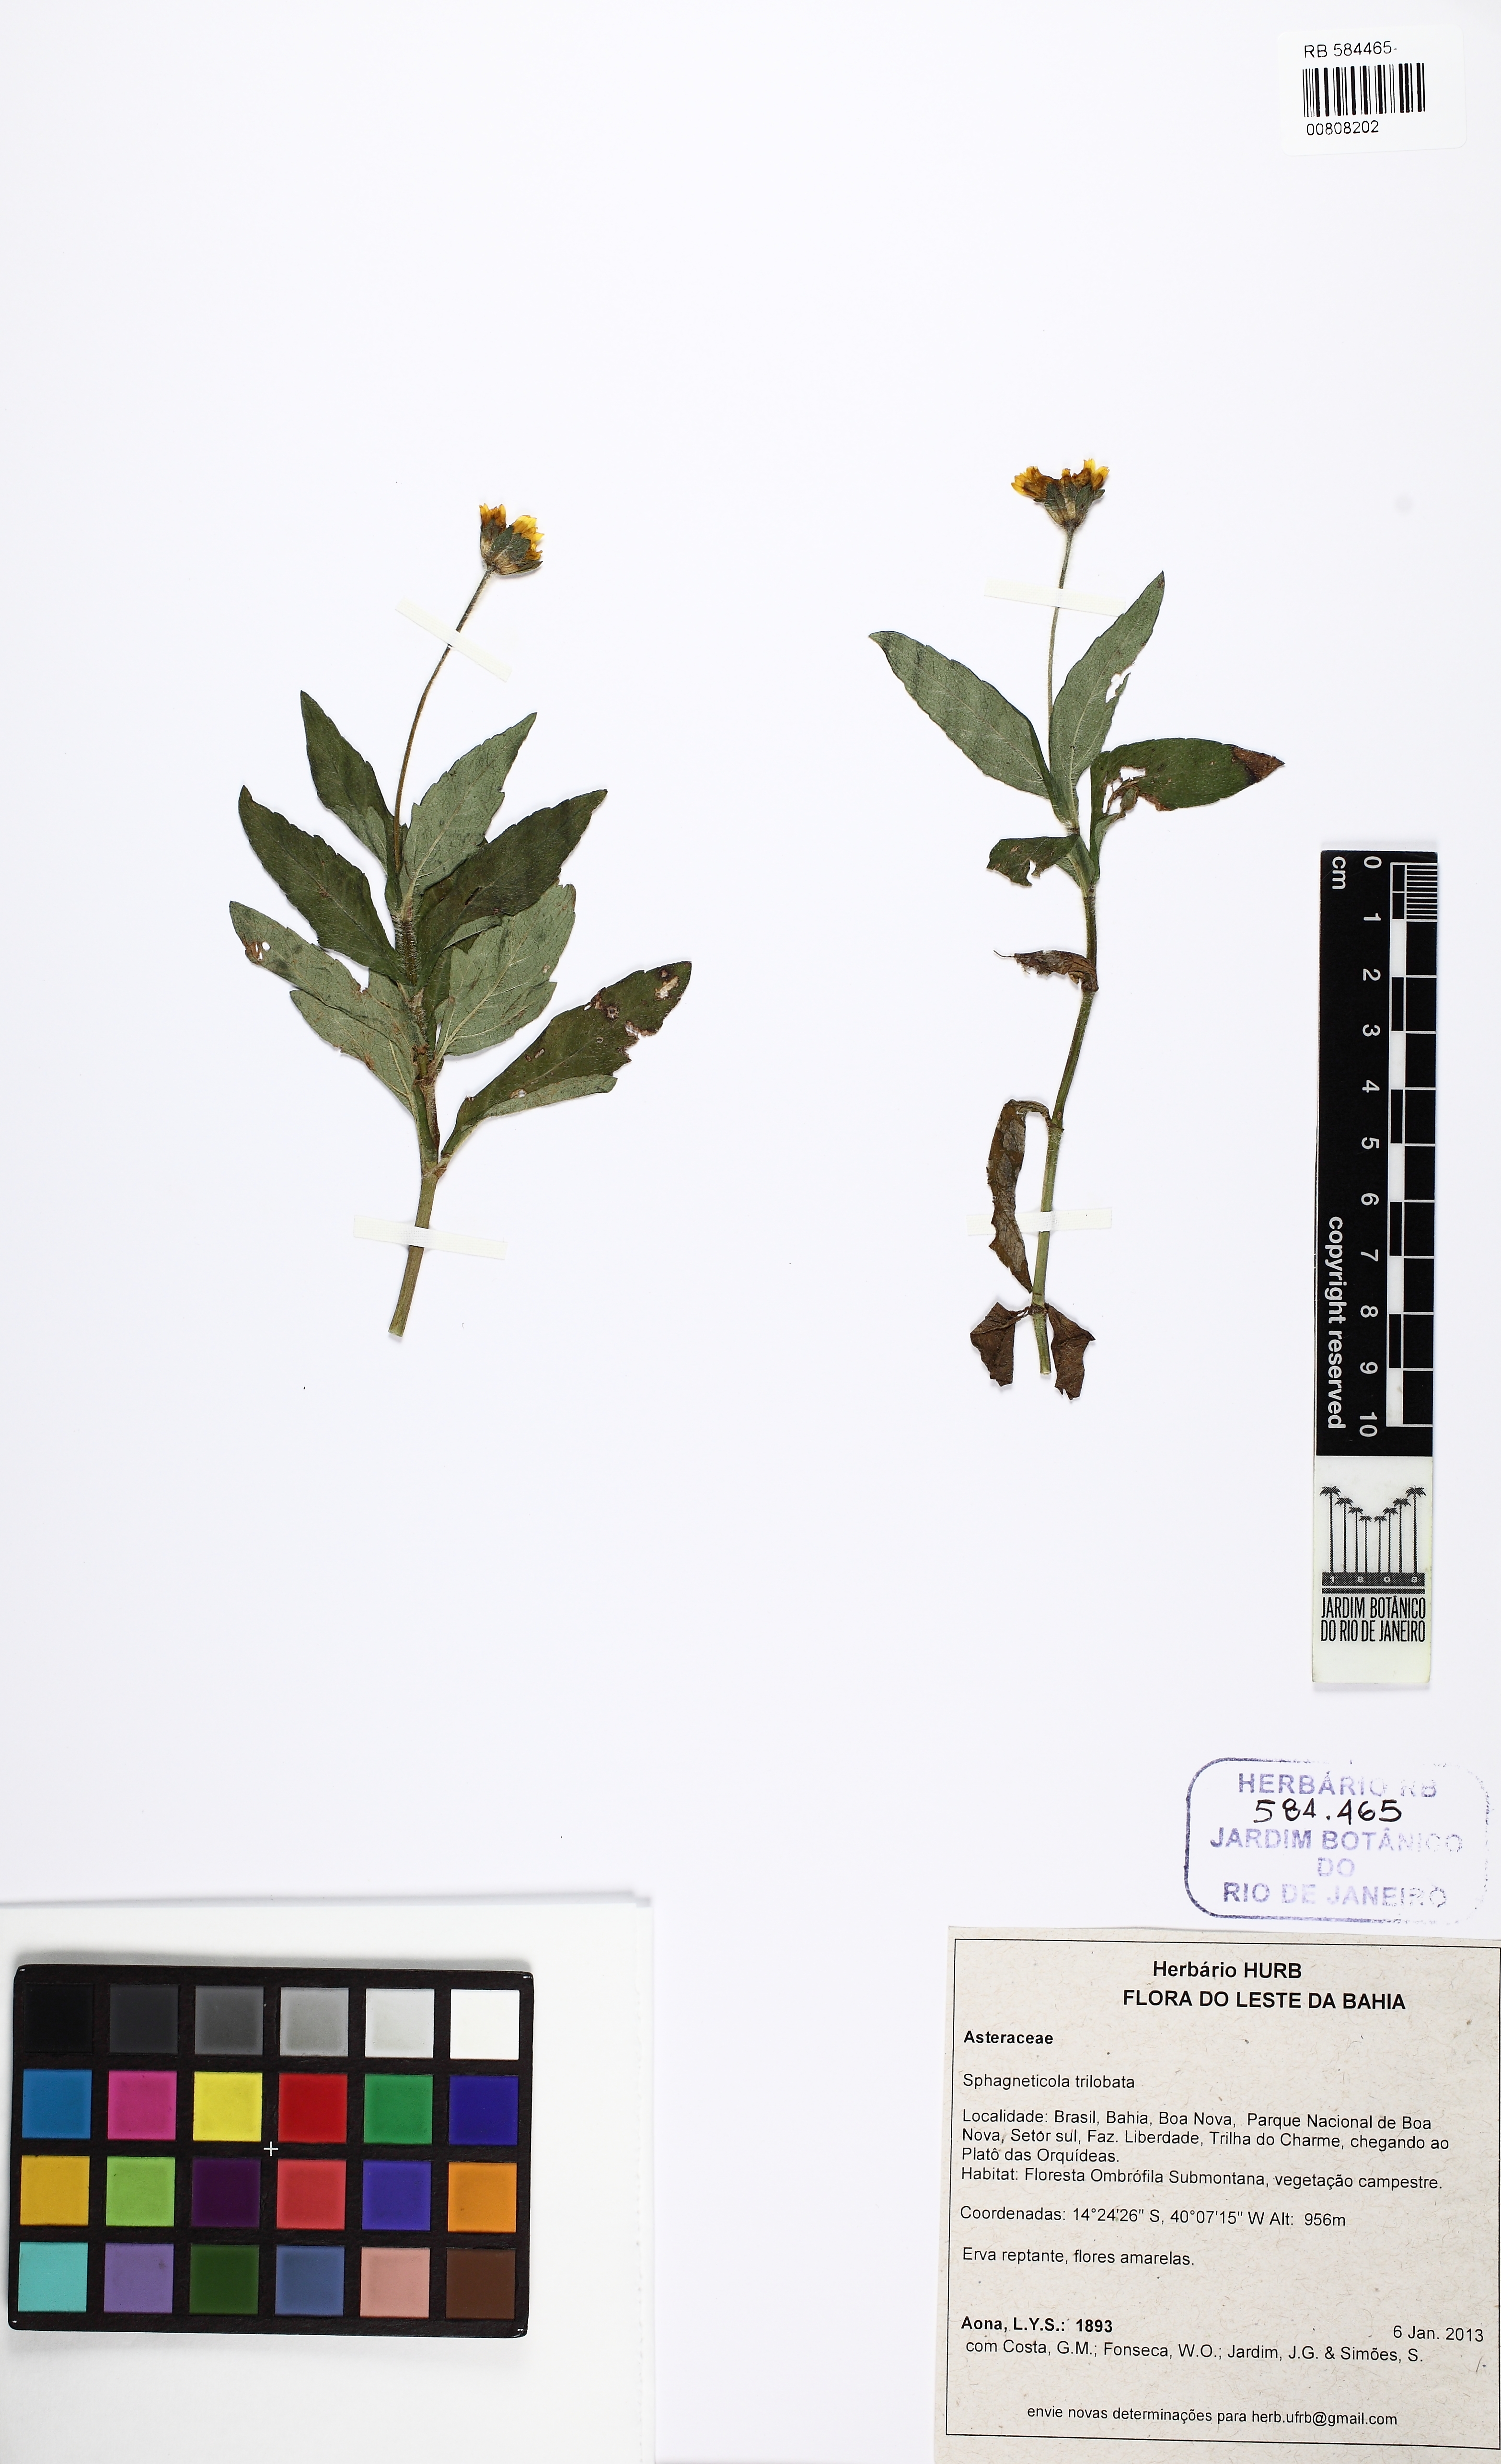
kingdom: Plantae
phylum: Tracheophyta
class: Magnoliopsida
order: Asterales
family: Asteraceae
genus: Sphagneticola
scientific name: Sphagneticola trilobata
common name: Bay biscayne creeping-oxeye
